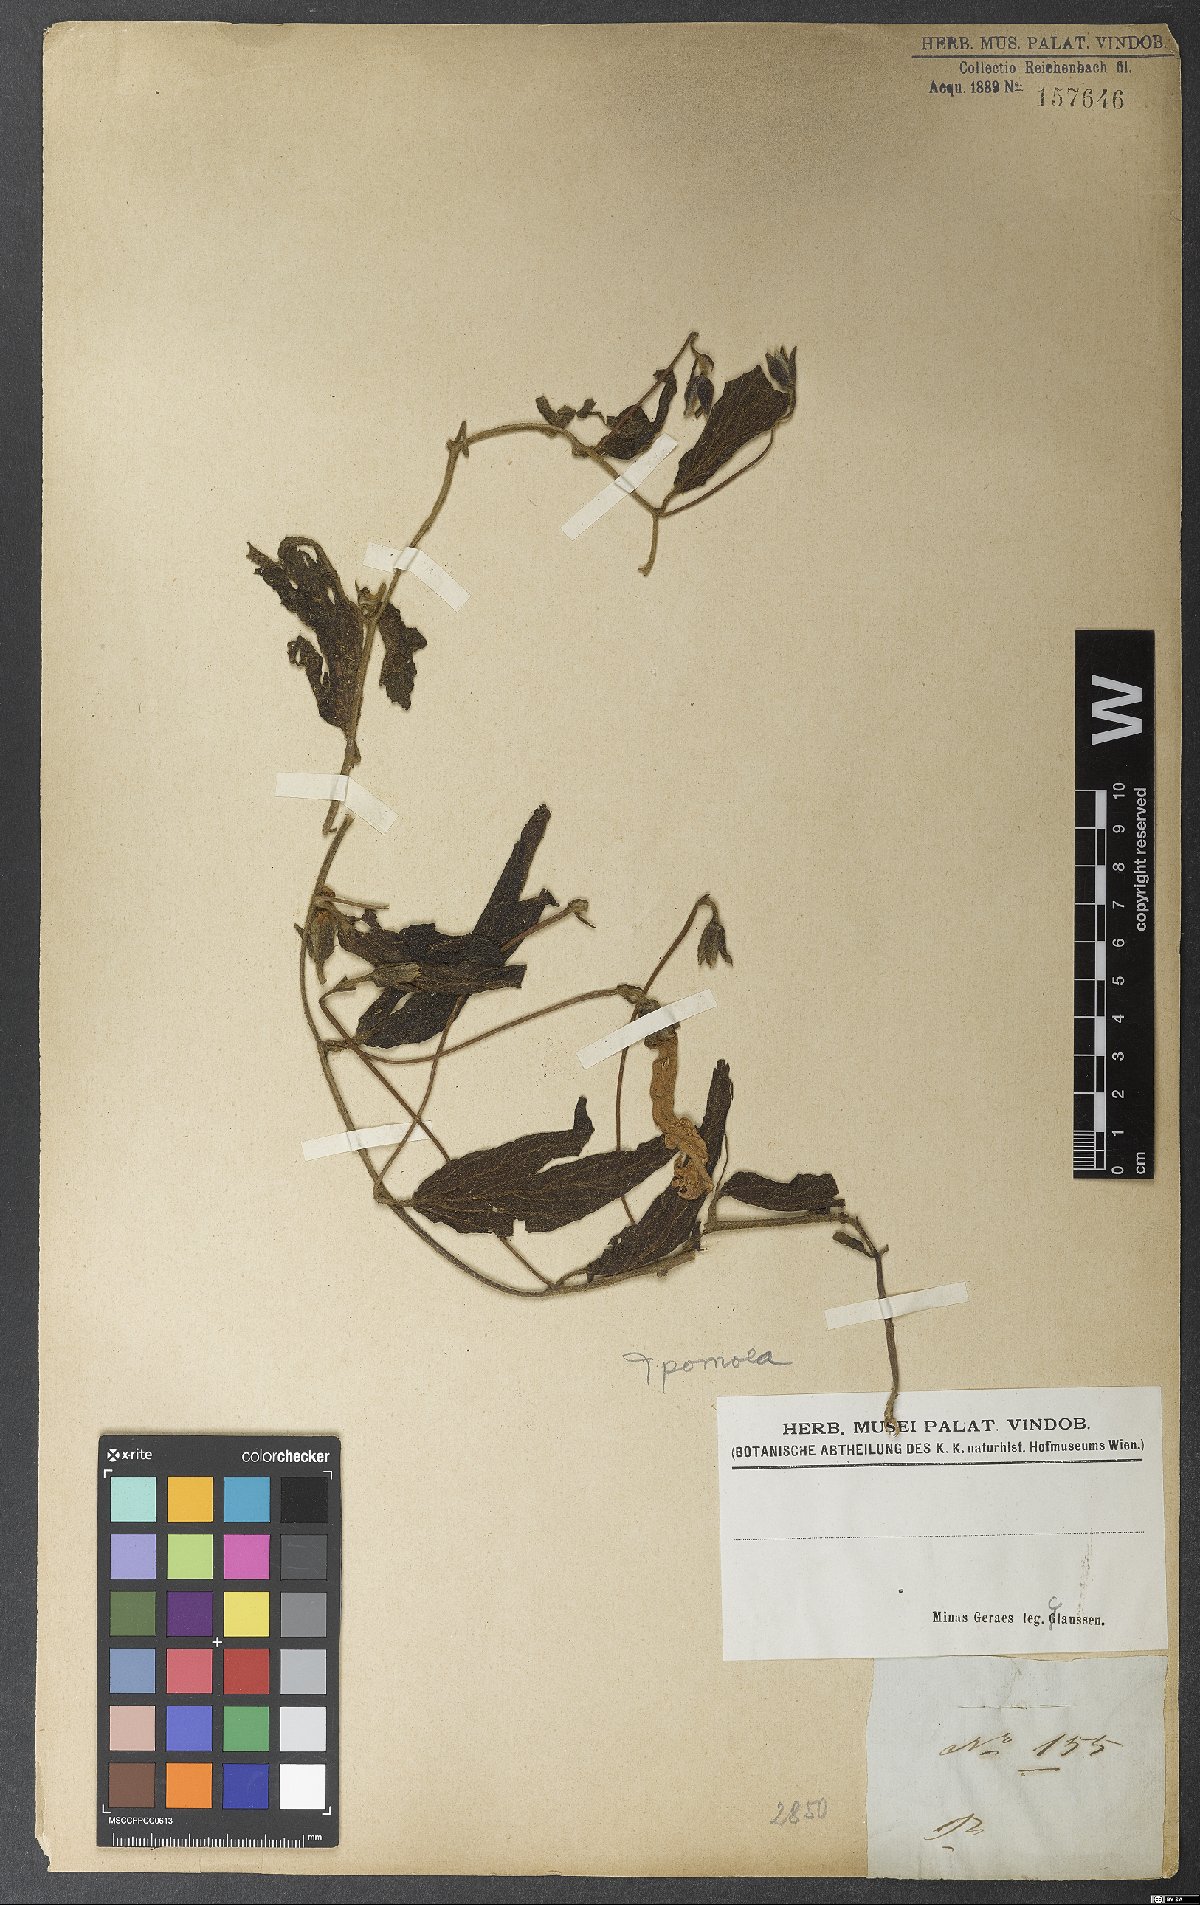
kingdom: Plantae
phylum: Tracheophyta
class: Magnoliopsida
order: Solanales
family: Convolvulaceae
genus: Ipomoea
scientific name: Ipomoea
